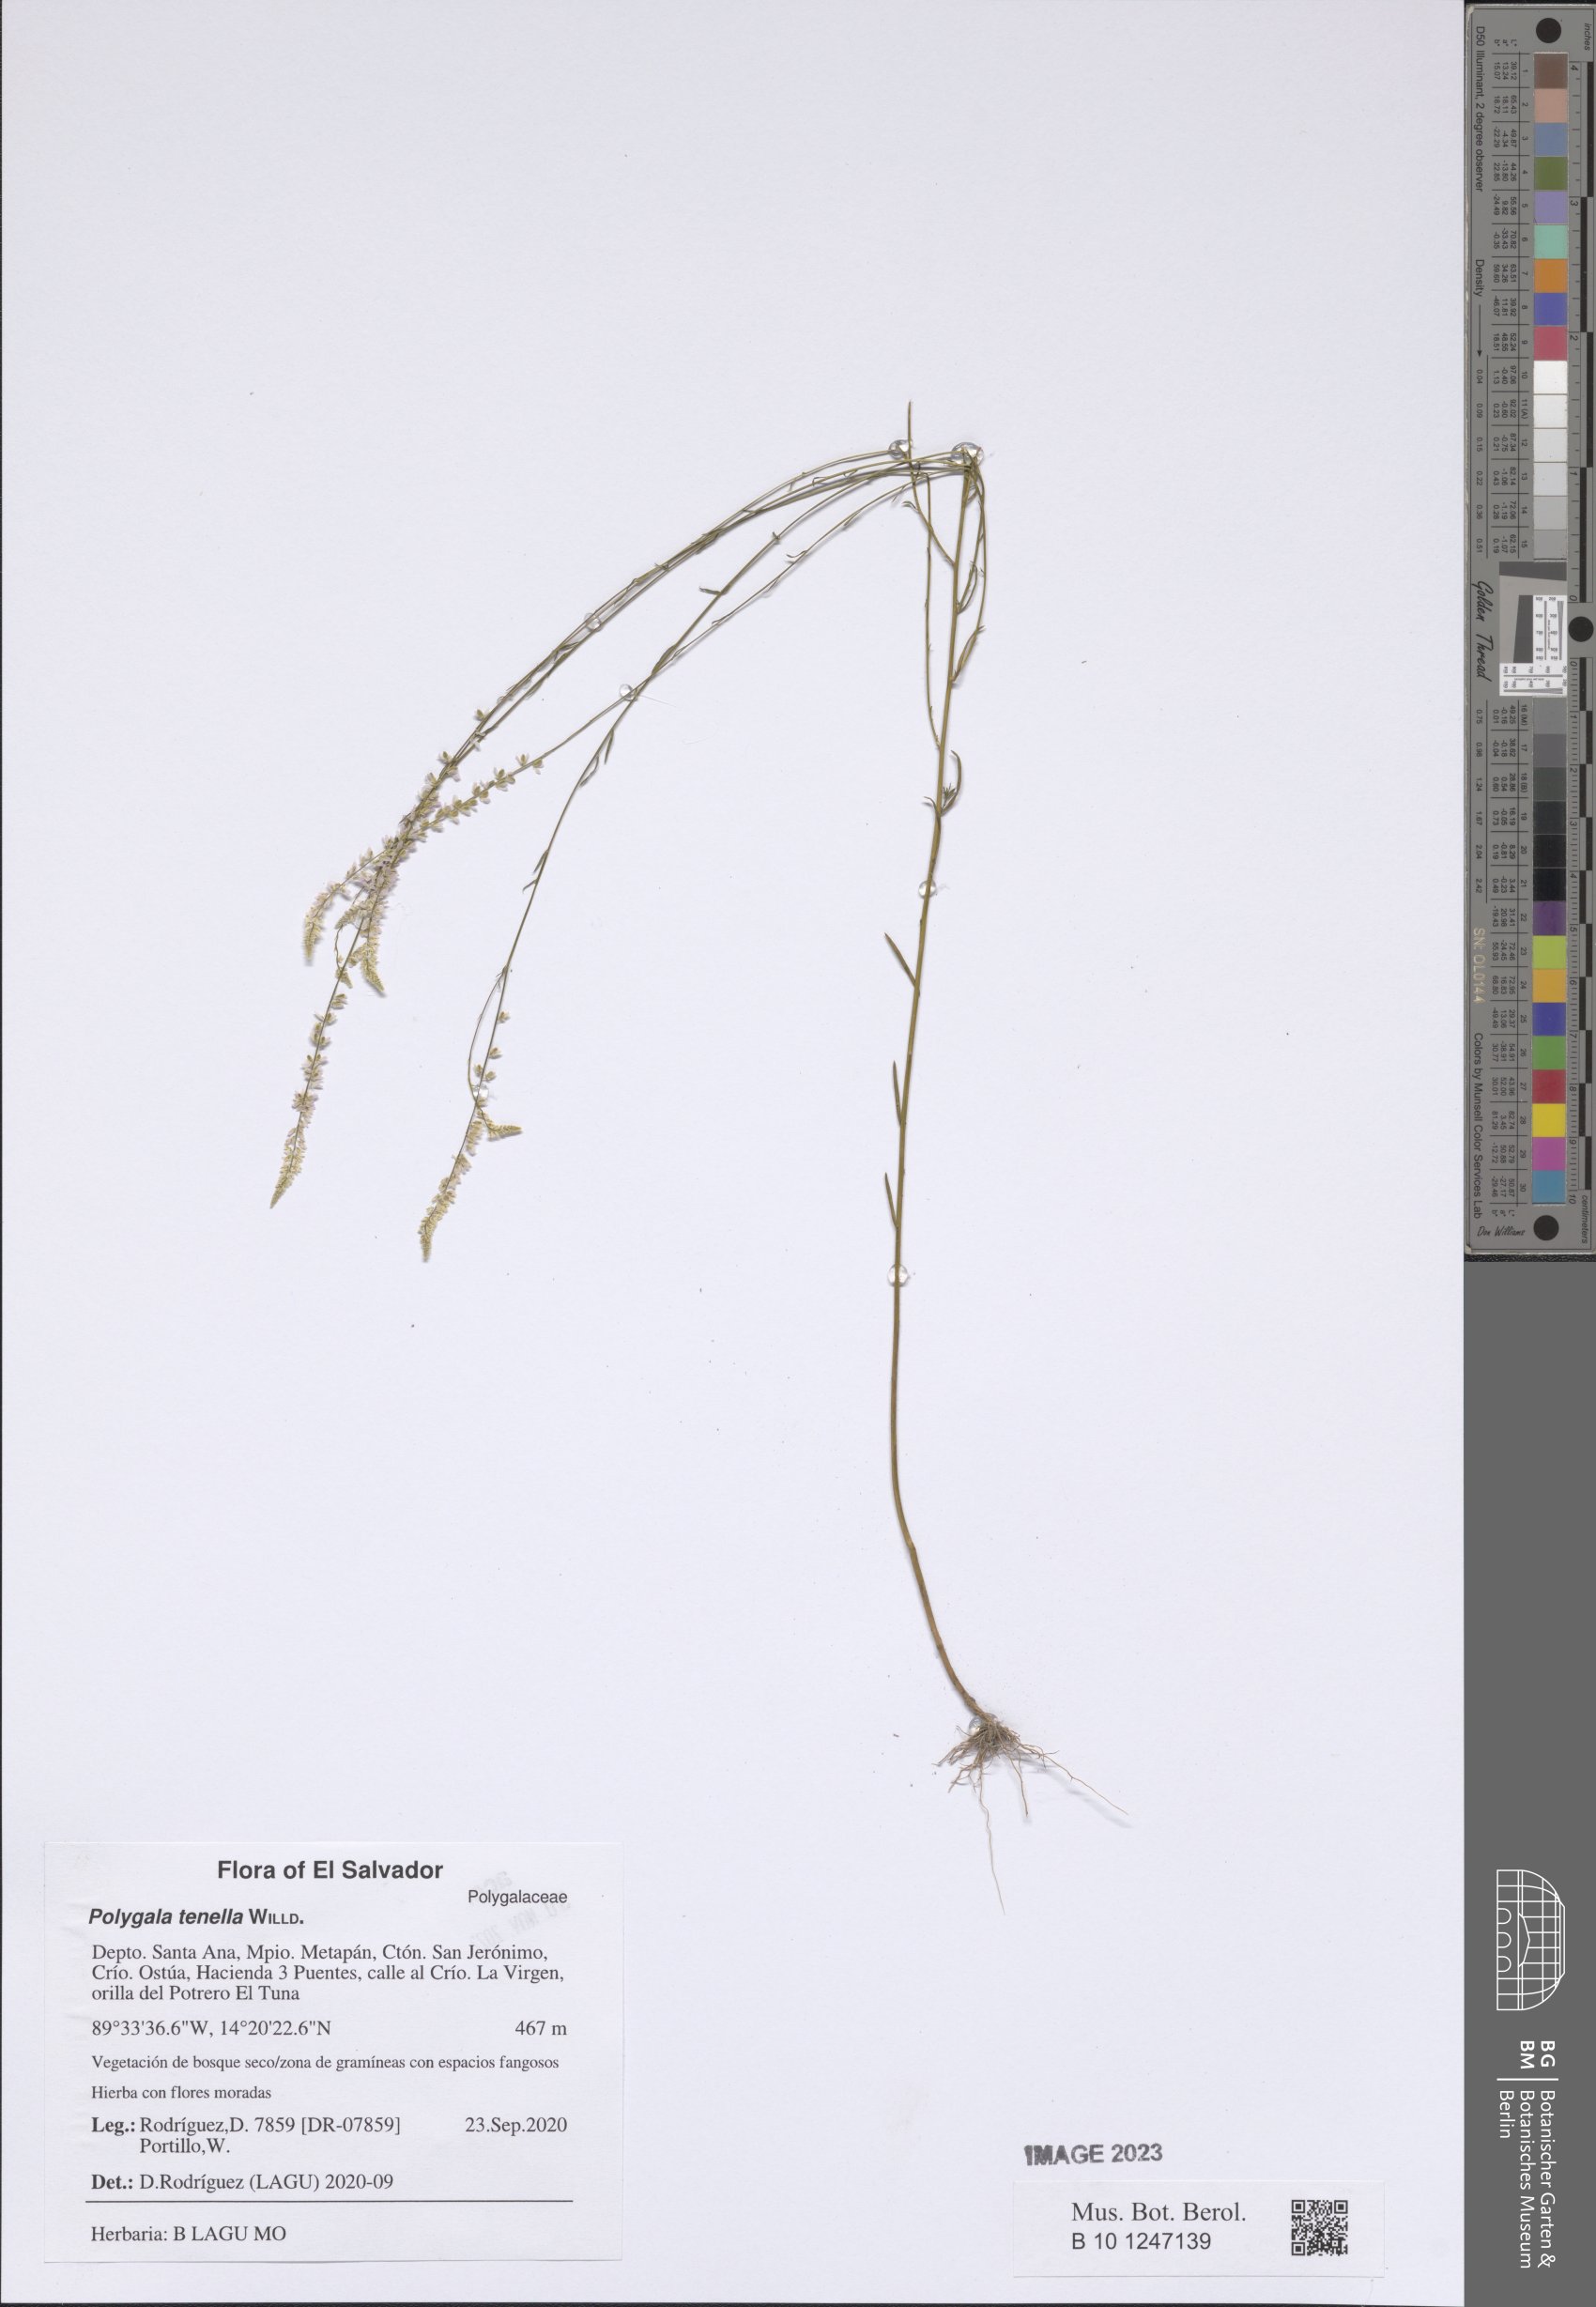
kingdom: Plantae
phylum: Tracheophyta
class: Magnoliopsida
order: Fabales
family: Polygalaceae
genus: Polygala
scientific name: Polygala tenella
